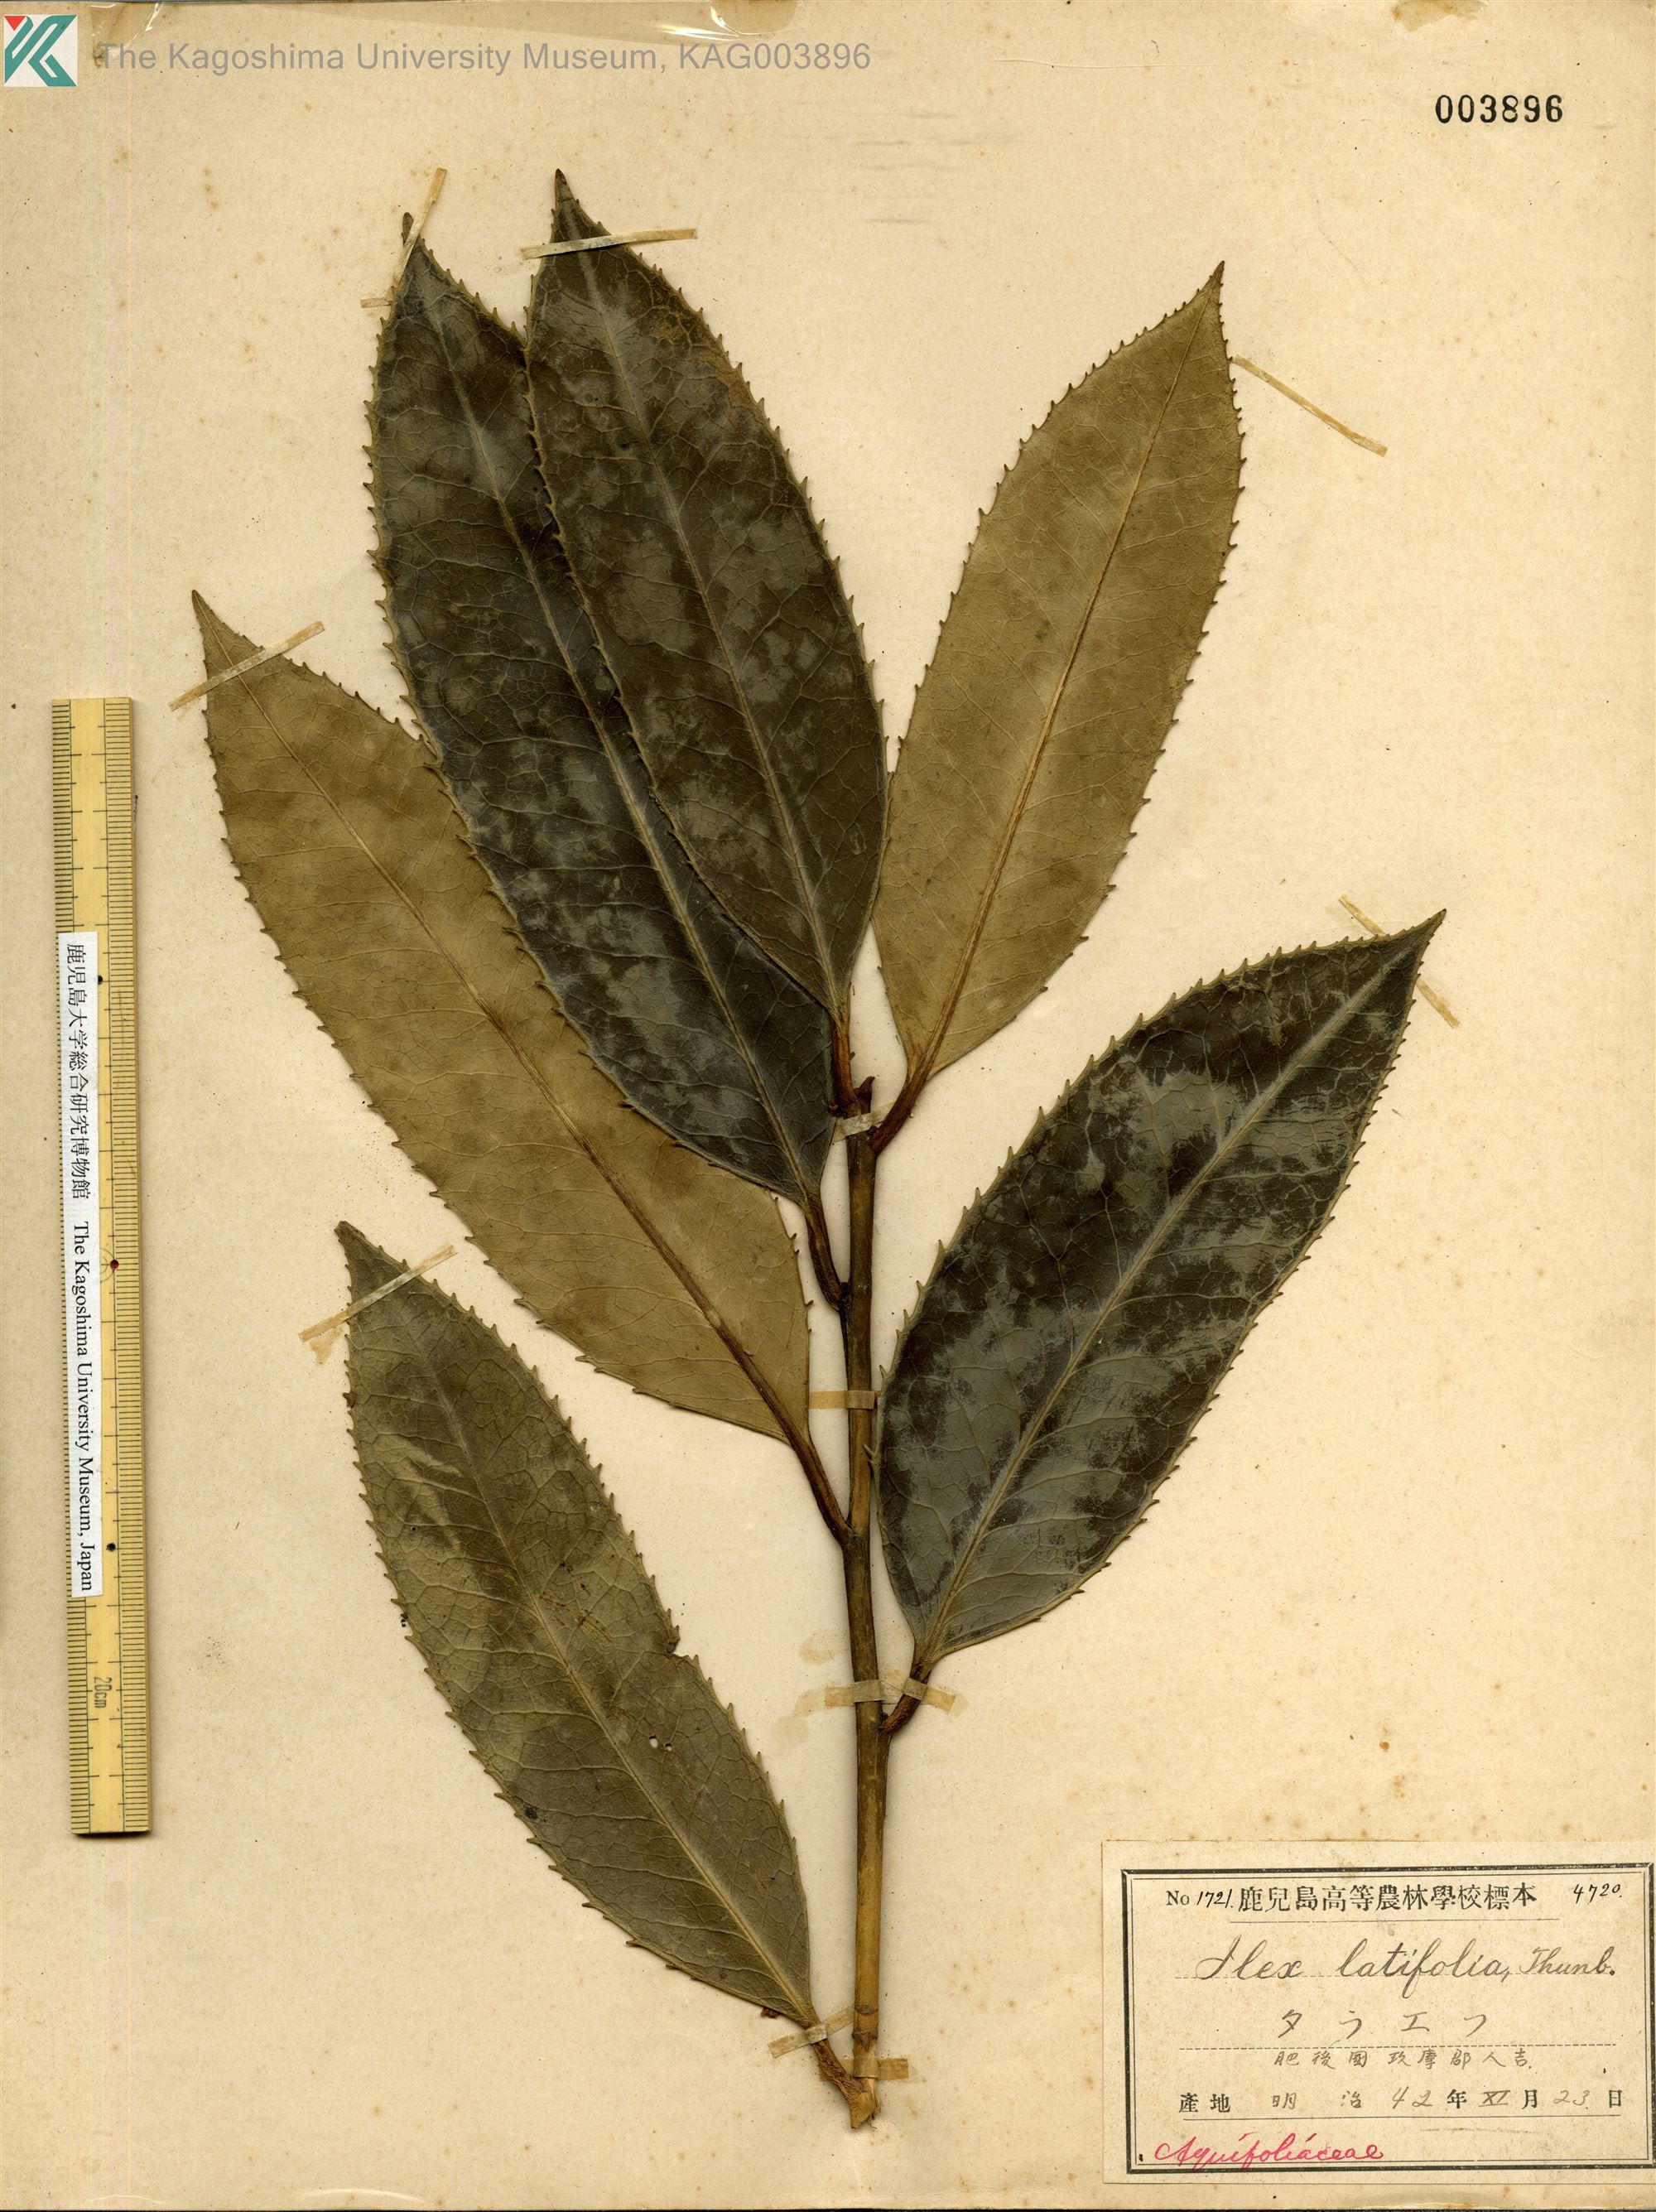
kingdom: Plantae
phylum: Tracheophyta
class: Magnoliopsida
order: Aquifoliales
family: Aquifoliaceae
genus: Ilex
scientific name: Ilex latifolia
